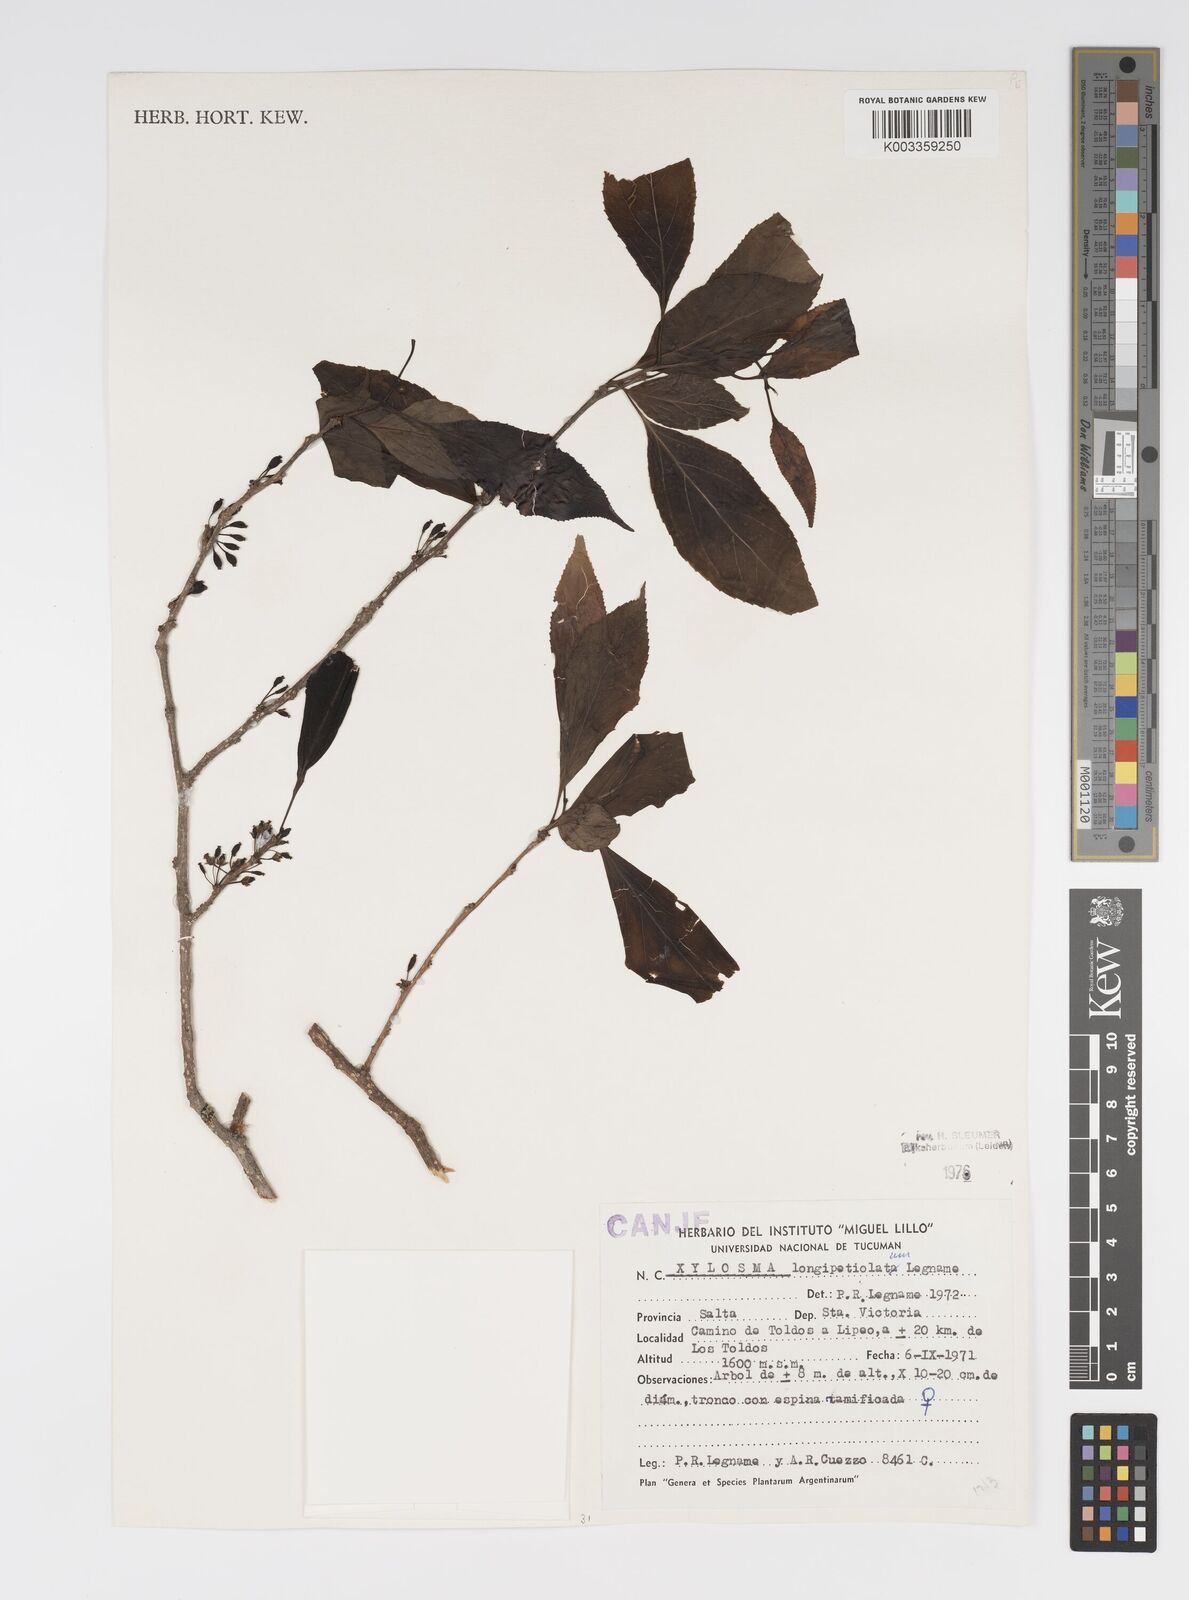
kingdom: Plantae
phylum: Tracheophyta
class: Magnoliopsida
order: Malpighiales
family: Salicaceae
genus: Xylosma
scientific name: Xylosma longipetiolata
